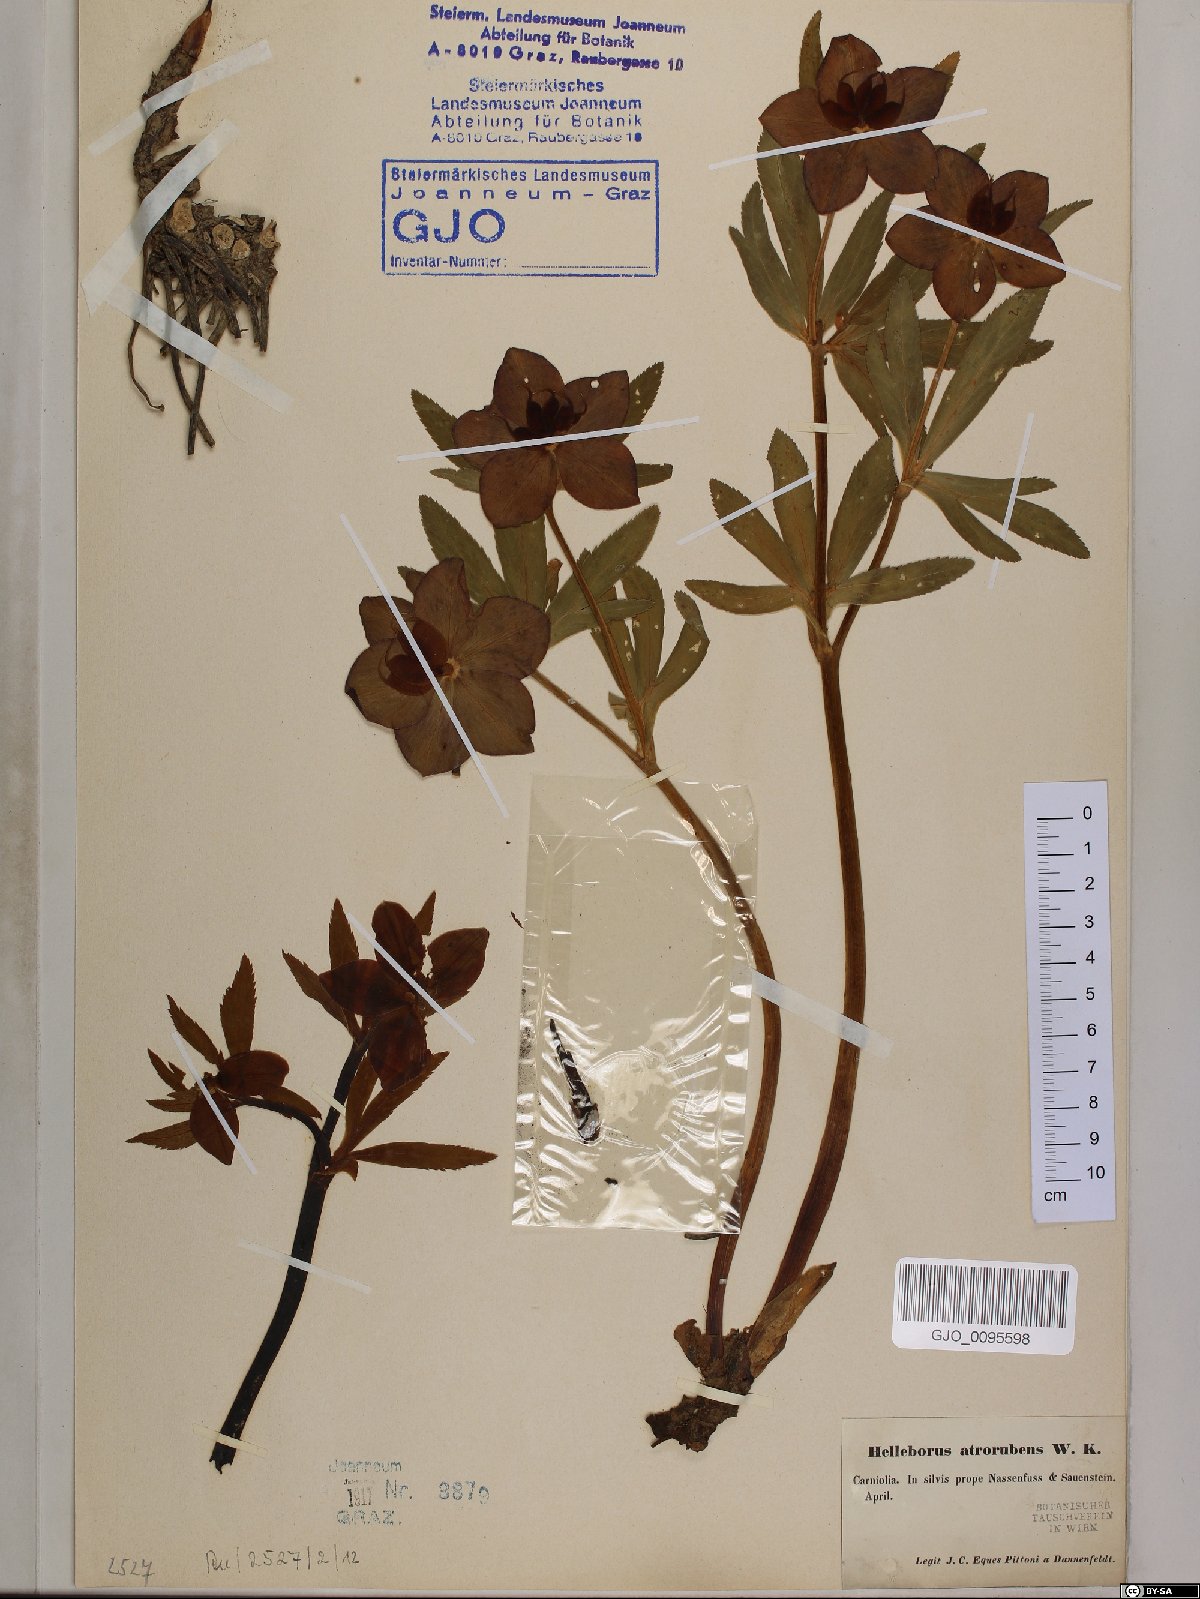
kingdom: Plantae
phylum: Tracheophyta
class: Magnoliopsida
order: Ranunculales
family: Ranunculaceae
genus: Helleborus
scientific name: Helleborus dumetorum
